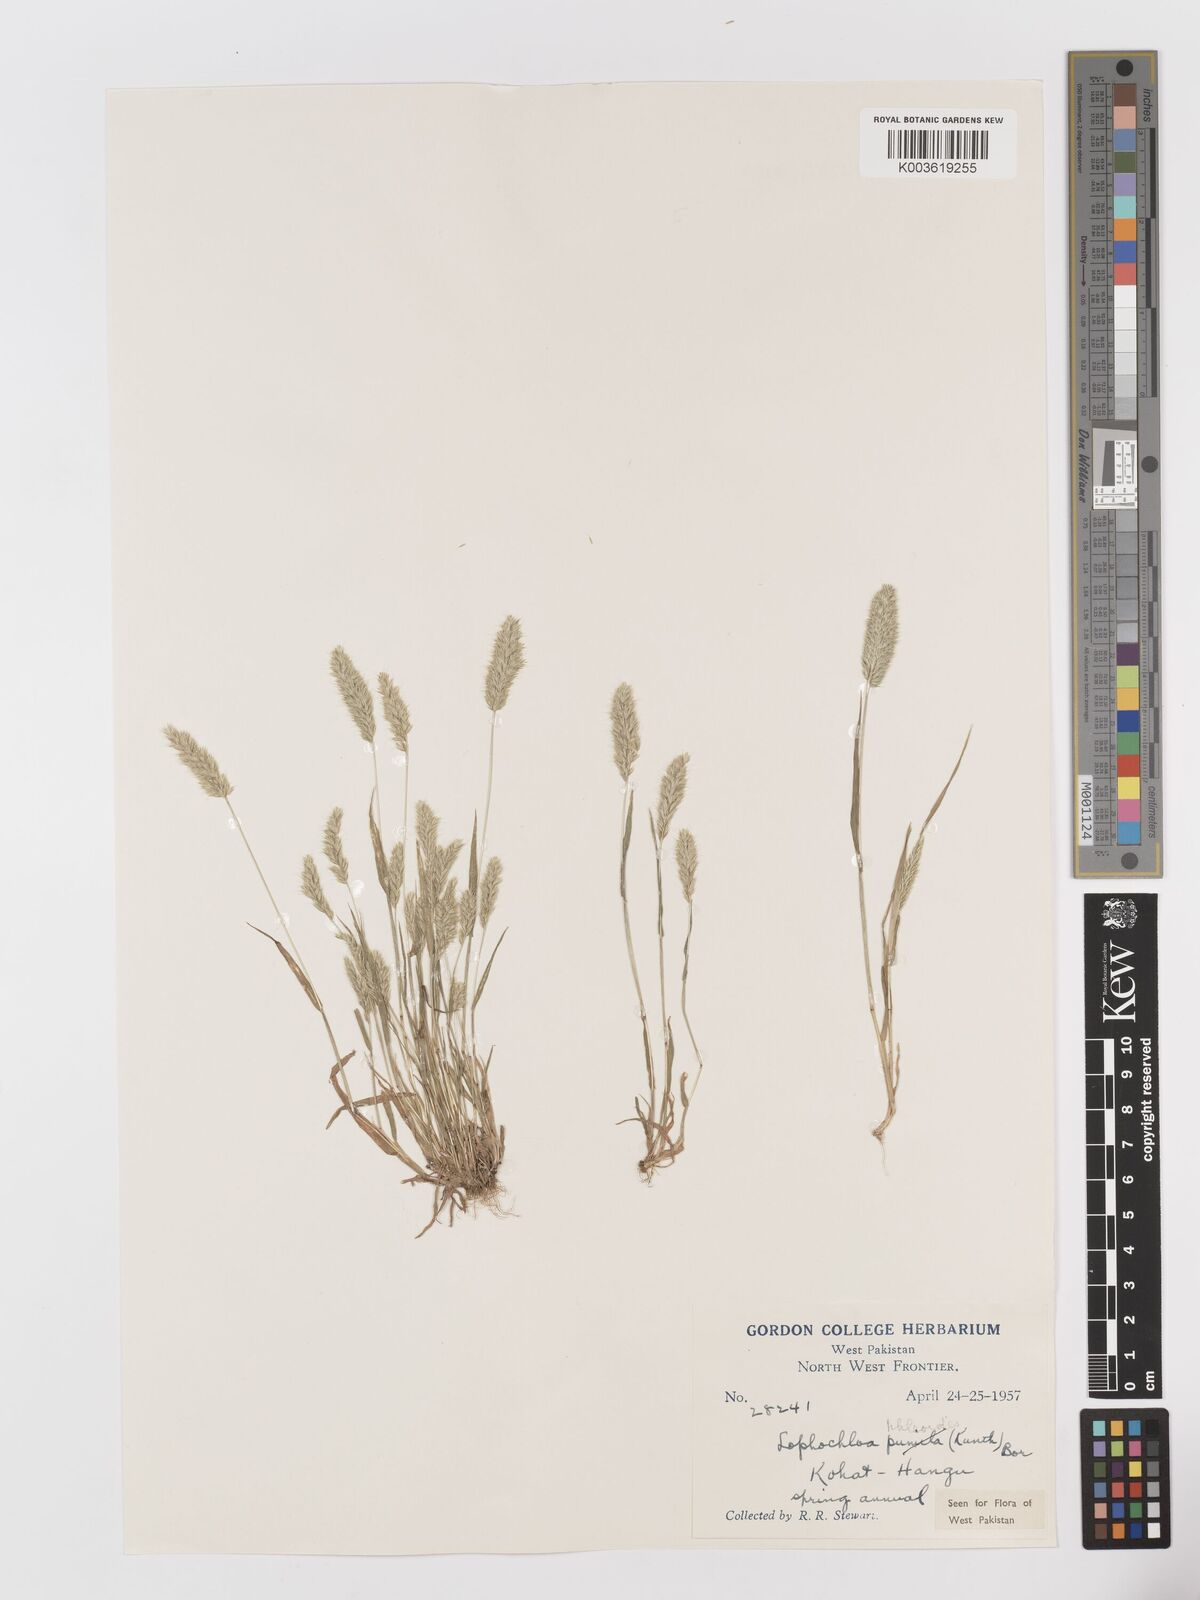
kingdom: Plantae
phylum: Tracheophyta
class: Liliopsida
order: Poales
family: Poaceae
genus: Rostraria
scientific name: Rostraria cristata
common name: Mediterranean hair-grass
